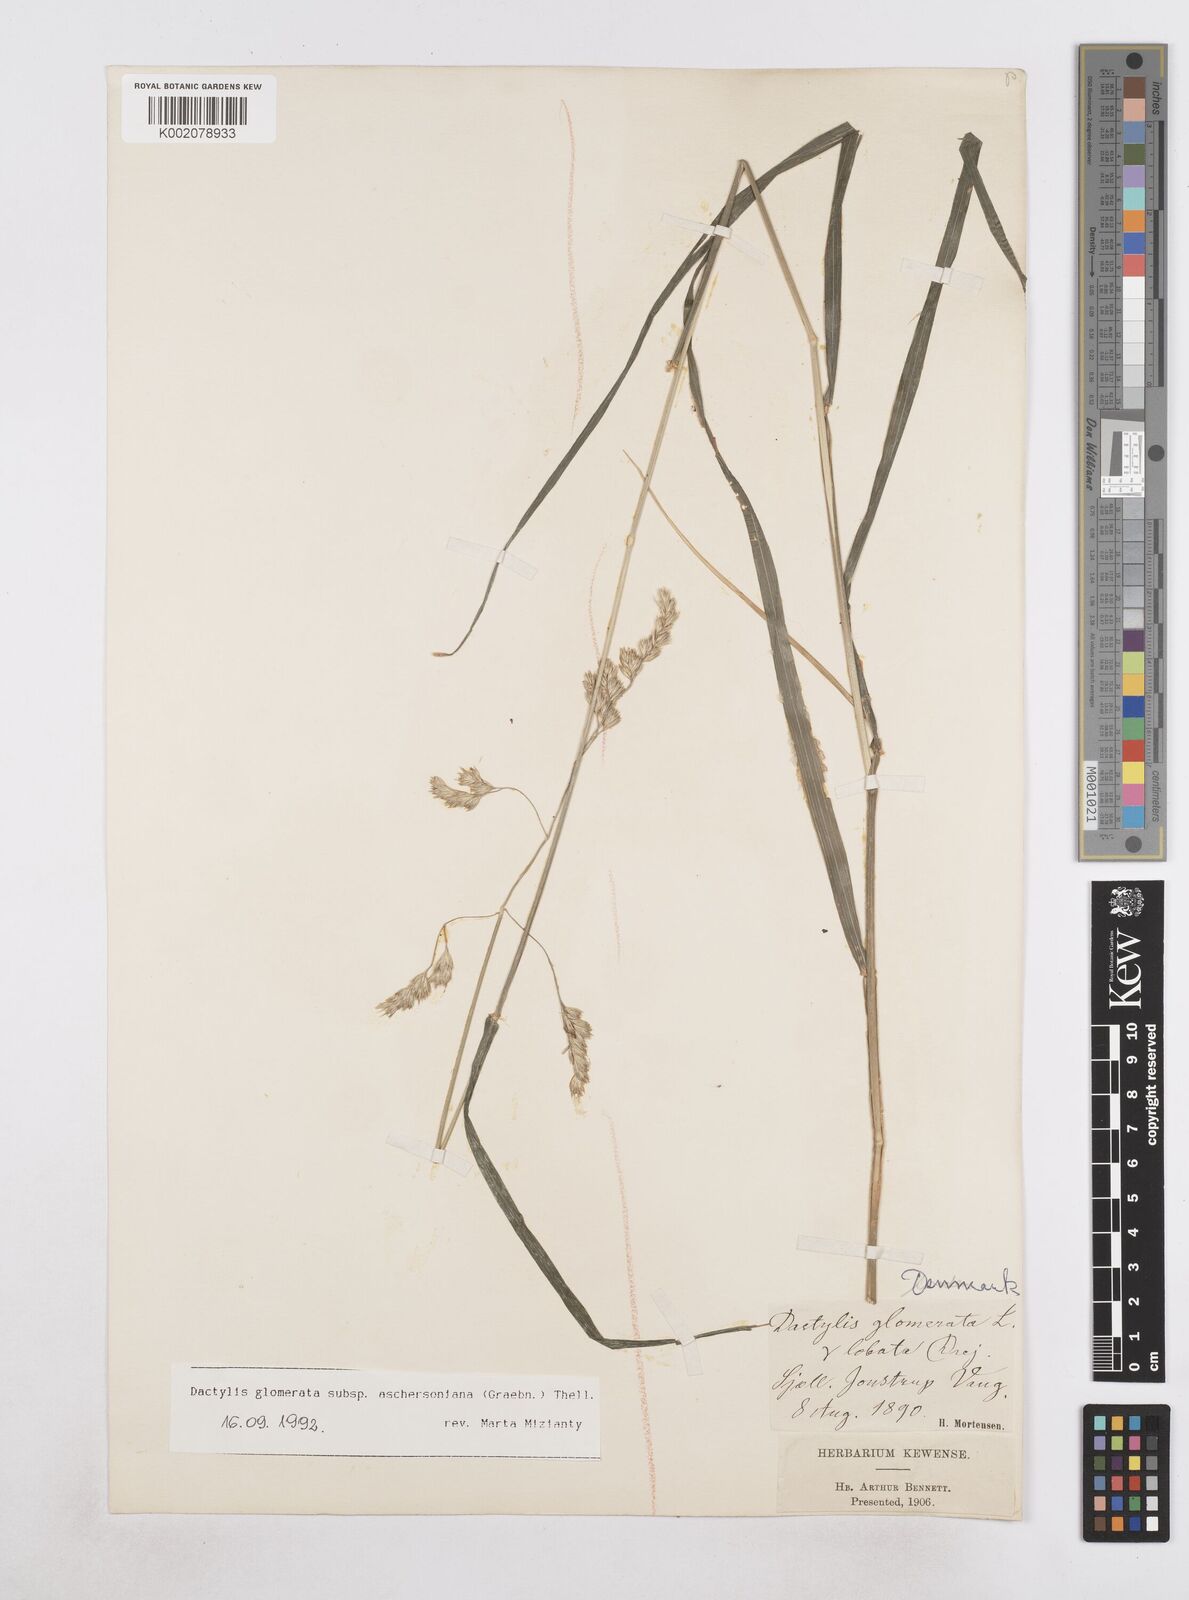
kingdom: Plantae
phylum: Tracheophyta
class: Liliopsida
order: Poales
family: Poaceae
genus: Dactylis
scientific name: Dactylis glomerata
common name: Orchardgrass
